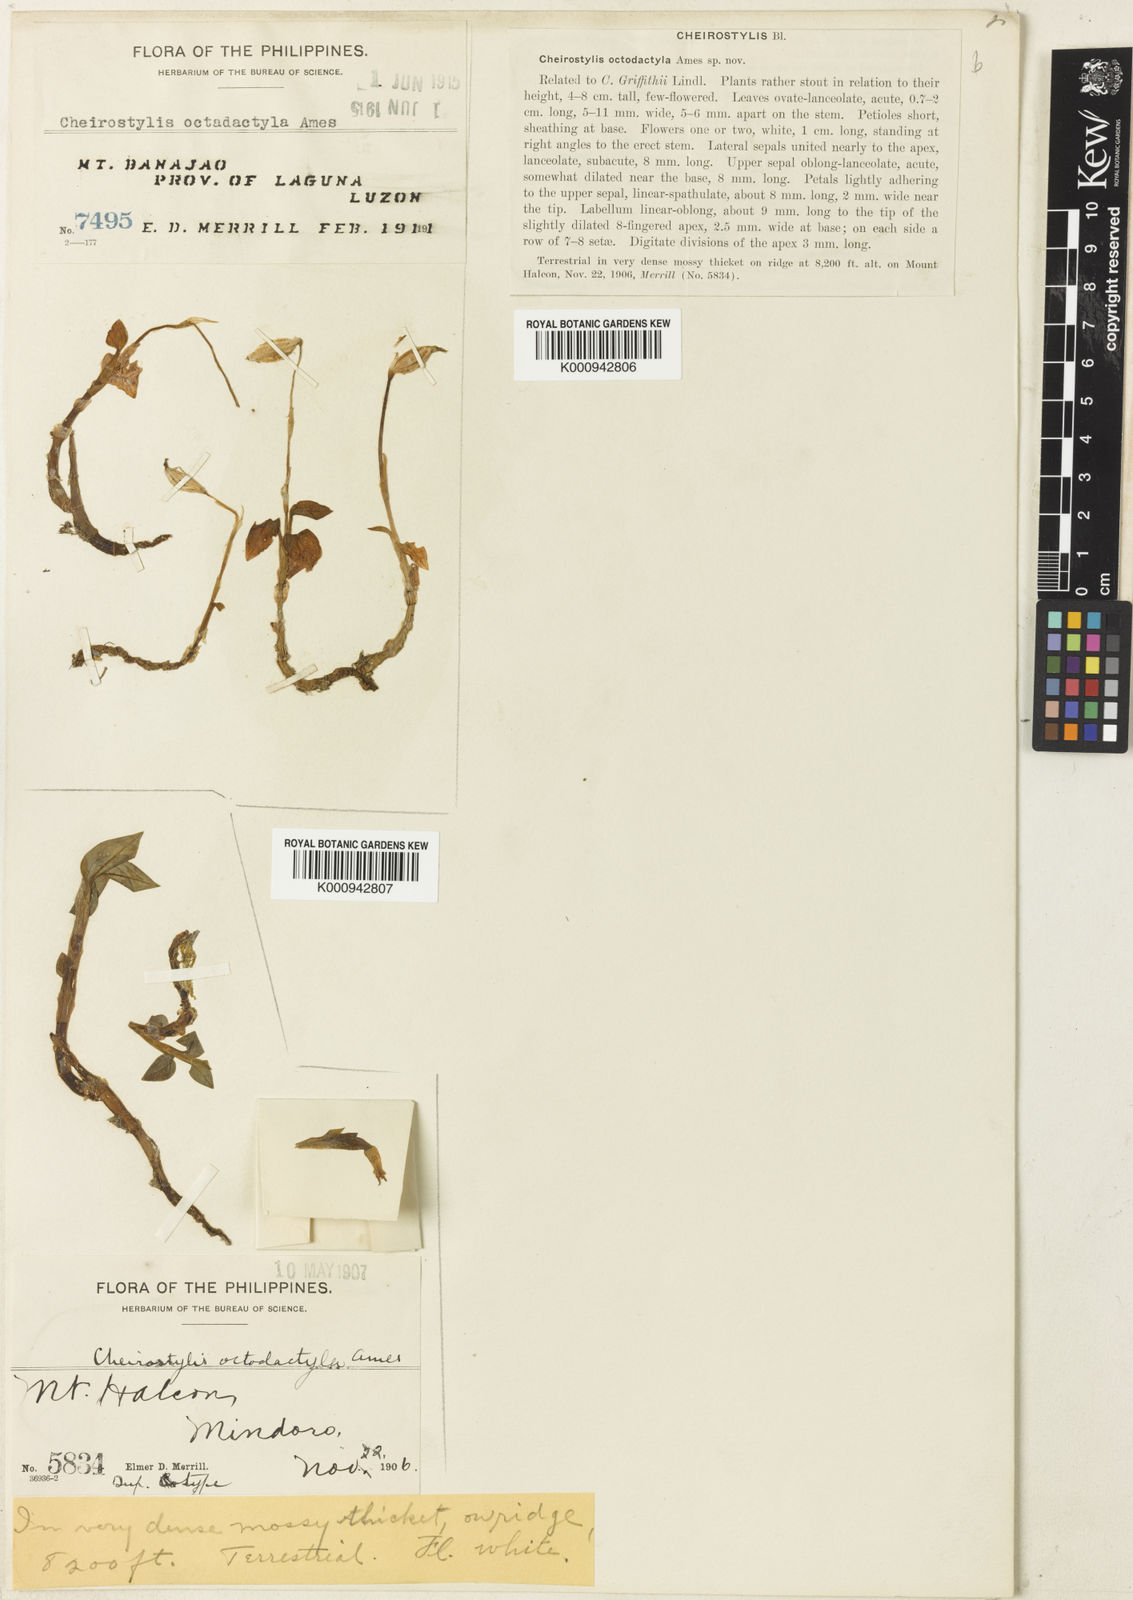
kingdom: Plantae
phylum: Tracheophyta
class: Liliopsida
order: Asparagales
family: Orchidaceae
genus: Cheirostylis
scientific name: Cheirostylis octodactyla
